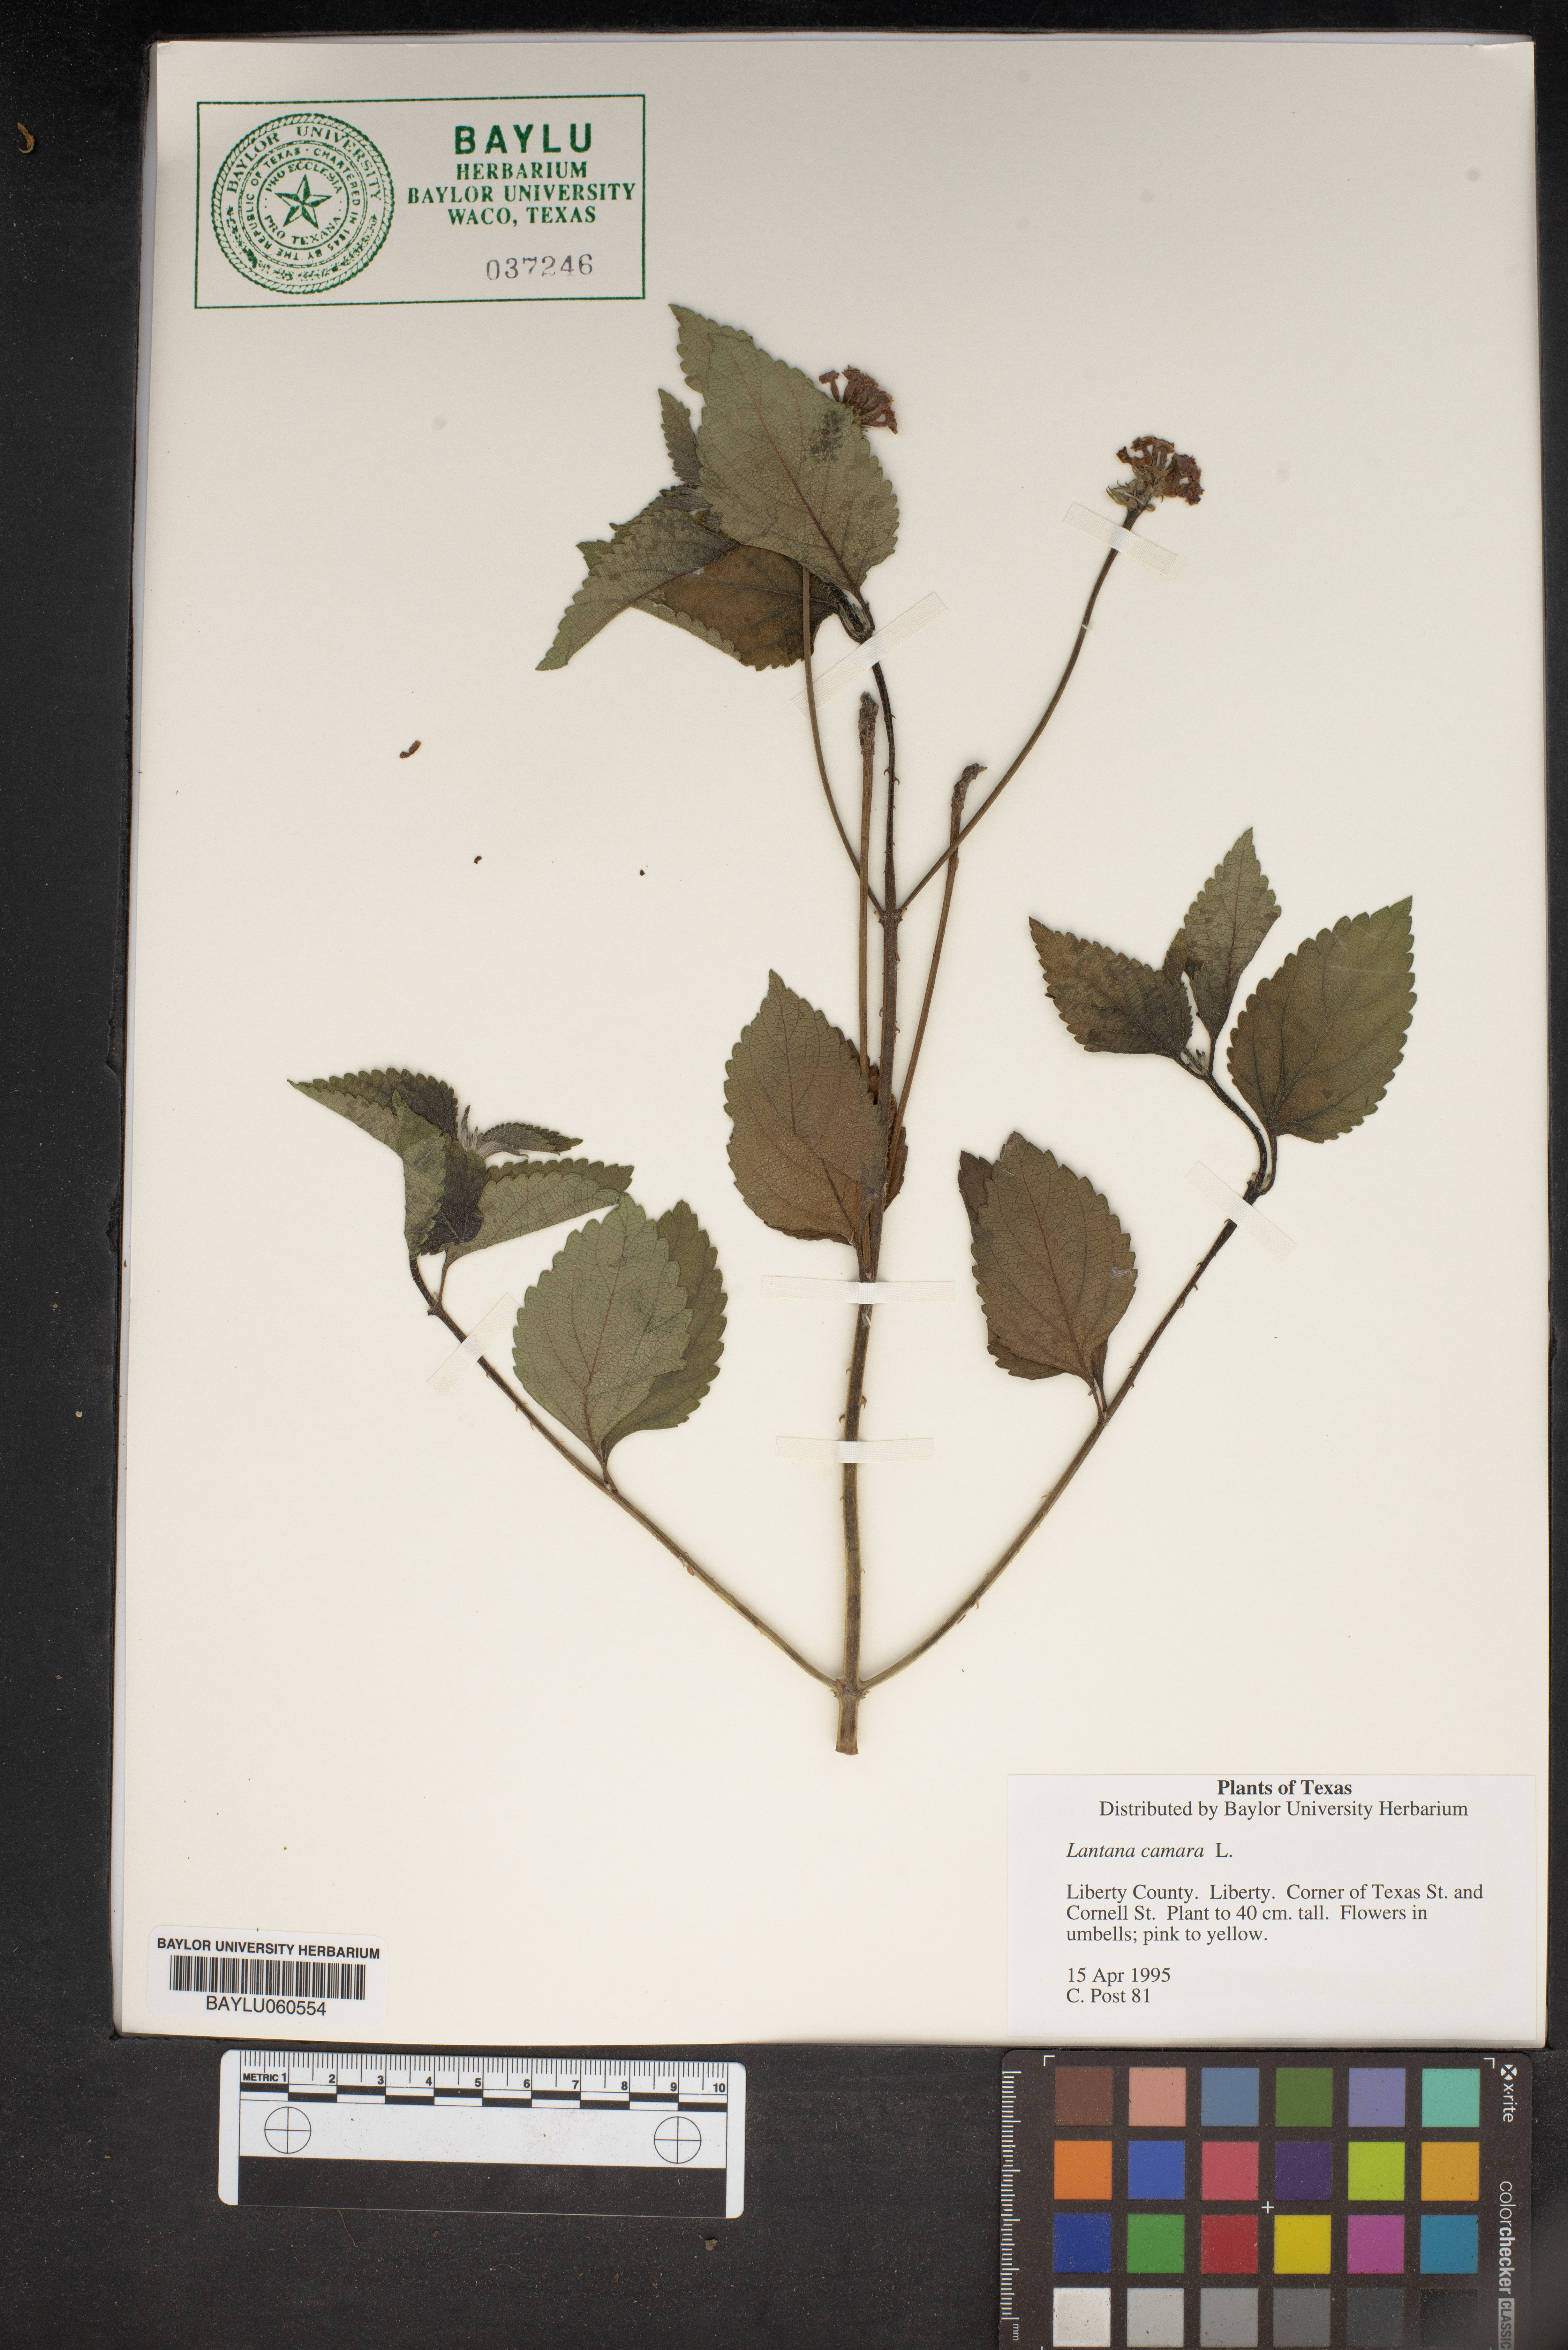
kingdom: Plantae
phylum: Tracheophyta
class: Magnoliopsida
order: Lamiales
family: Verbenaceae
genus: Lantana
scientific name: Lantana camara
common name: Lantana
